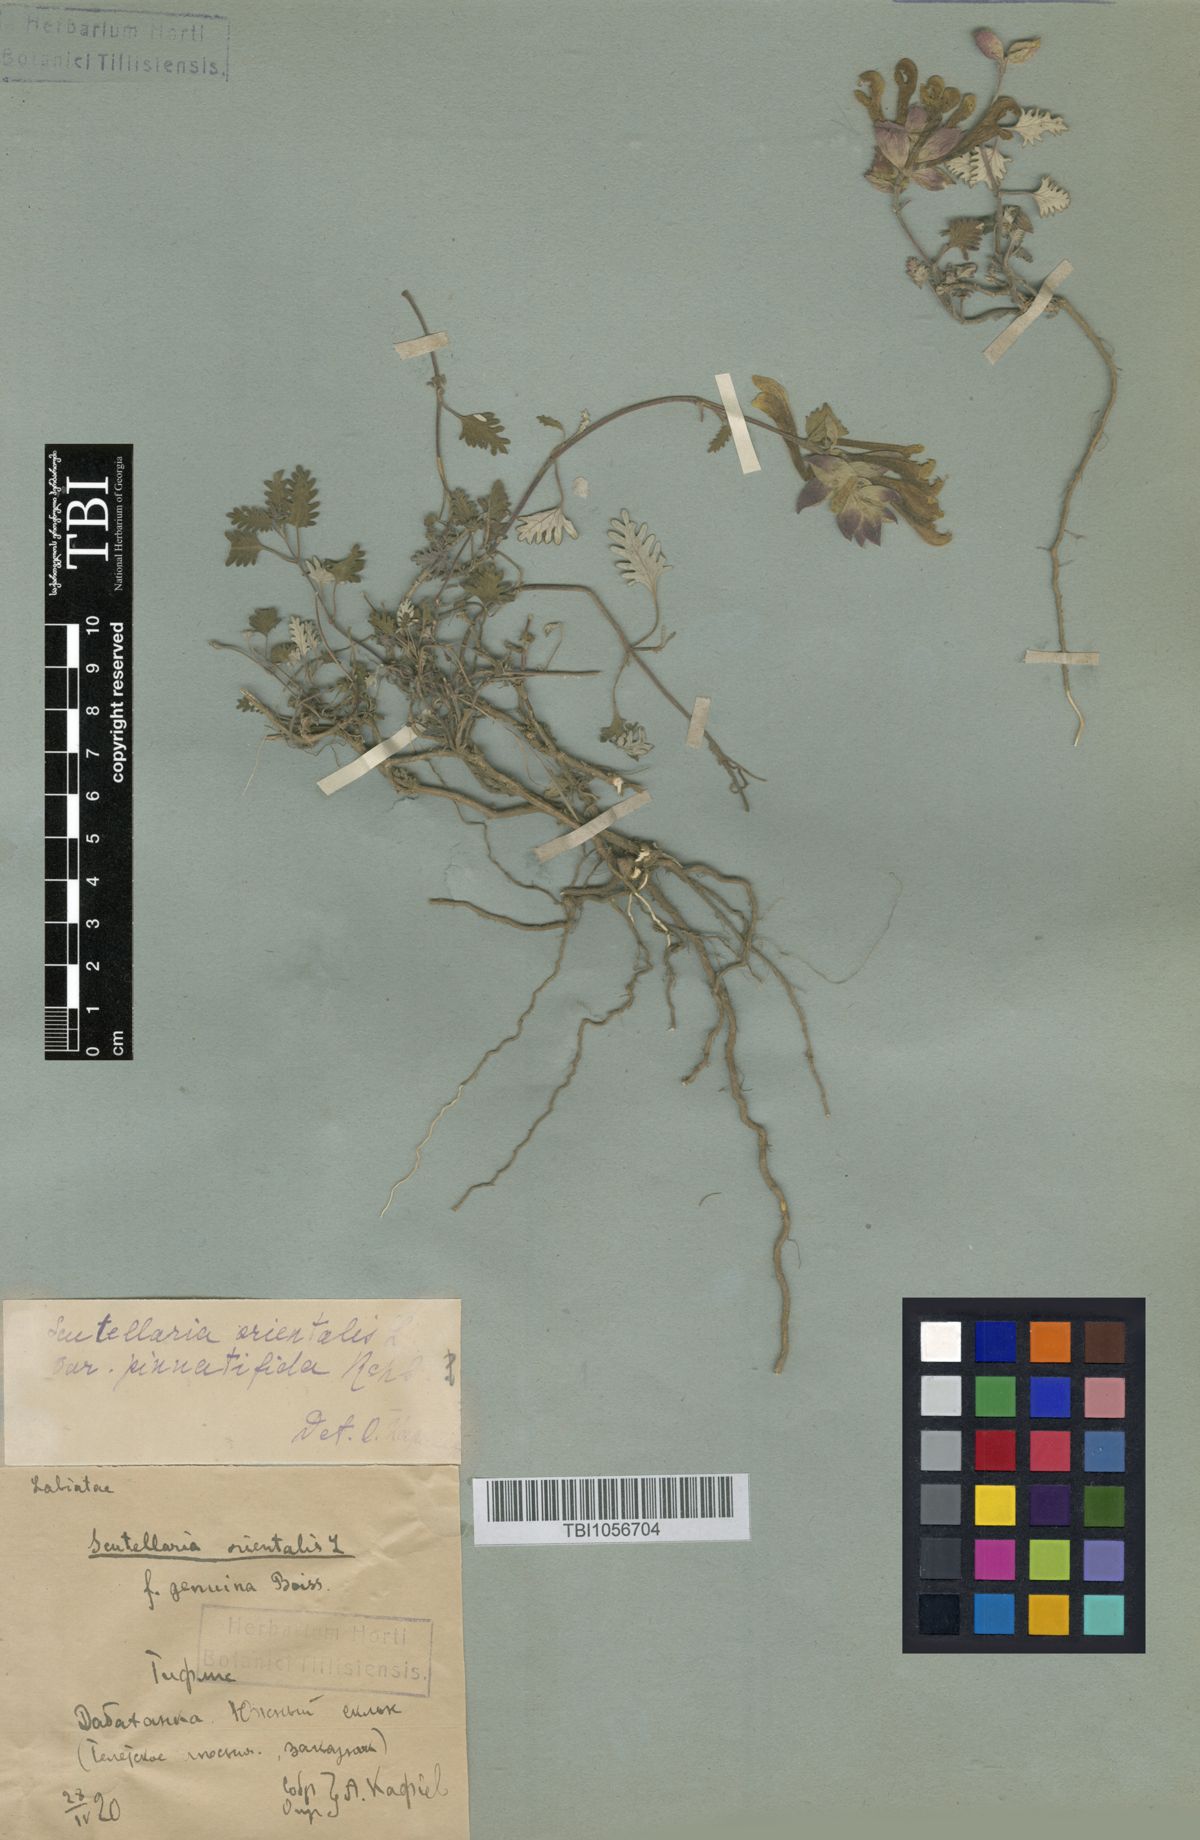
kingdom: Plantae
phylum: Tracheophyta
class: Magnoliopsida
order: Lamiales
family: Lamiaceae
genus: Scutellaria
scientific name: Scutellaria orientalis
